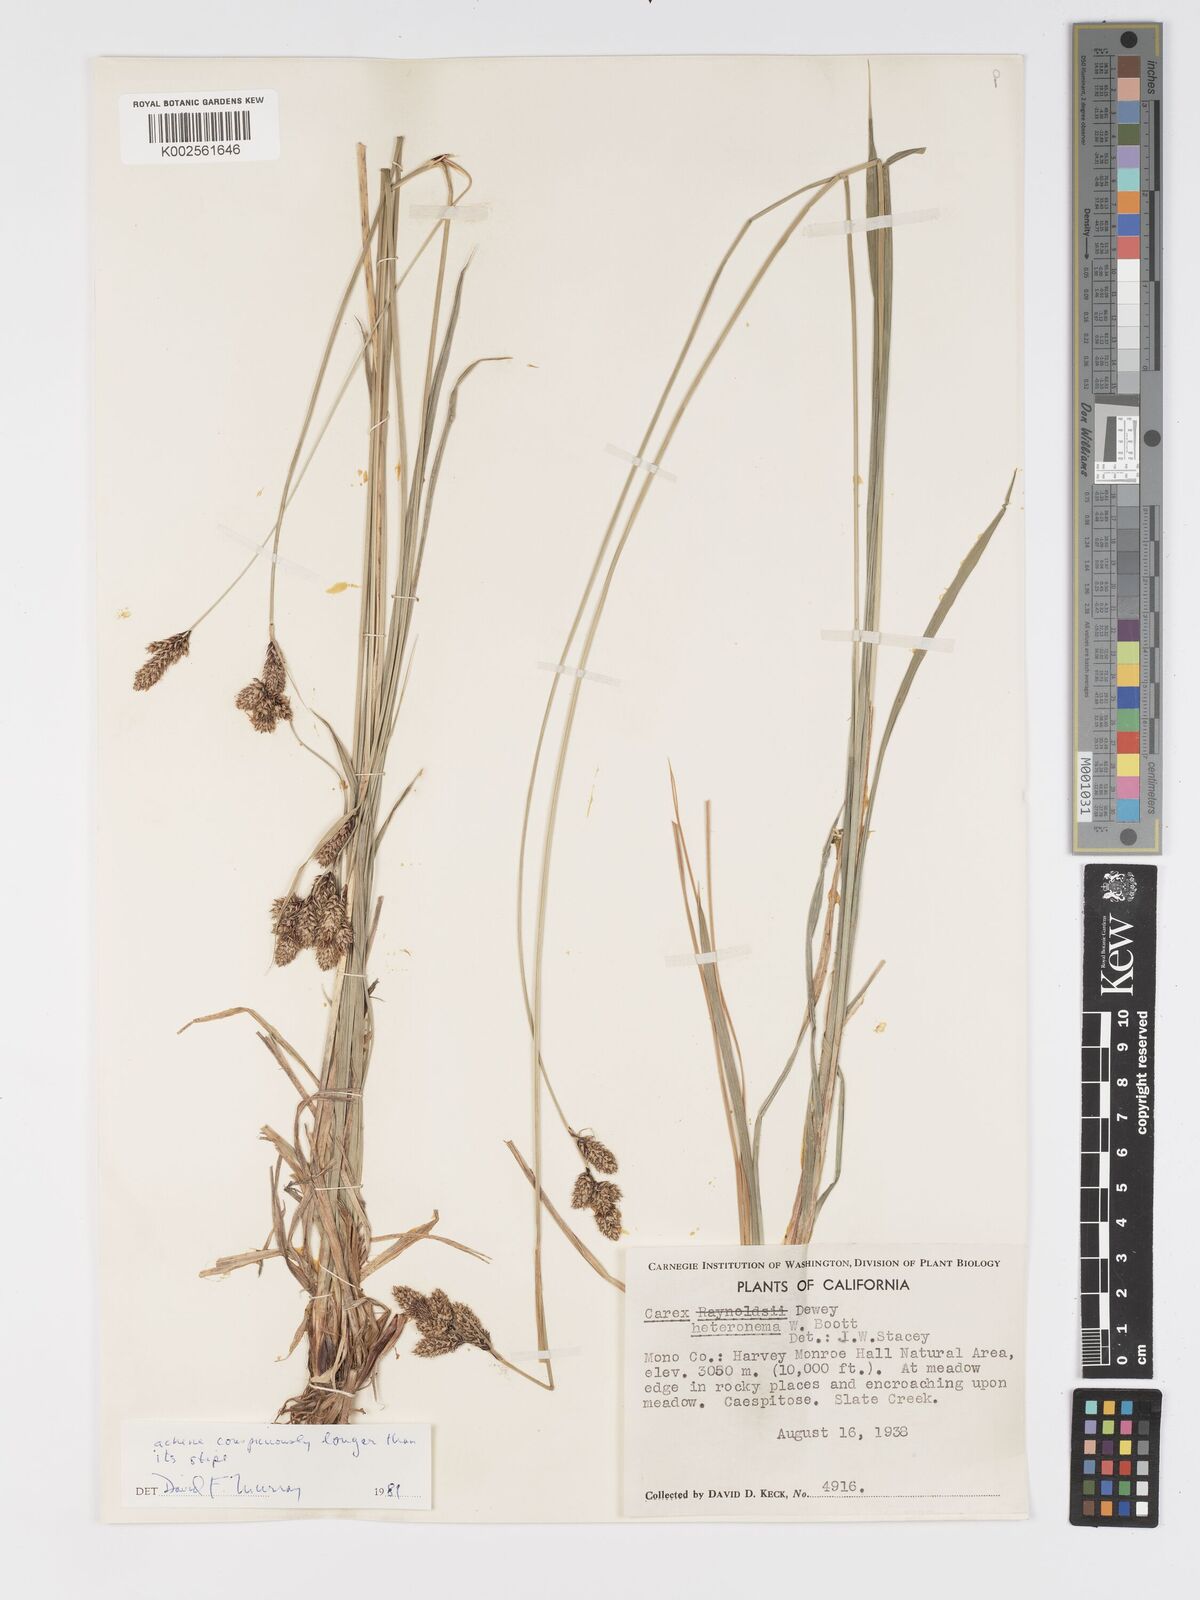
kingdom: Plantae
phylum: Tracheophyta
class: Liliopsida
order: Poales
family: Cyperaceae
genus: Carex
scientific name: Carex heteroneura
